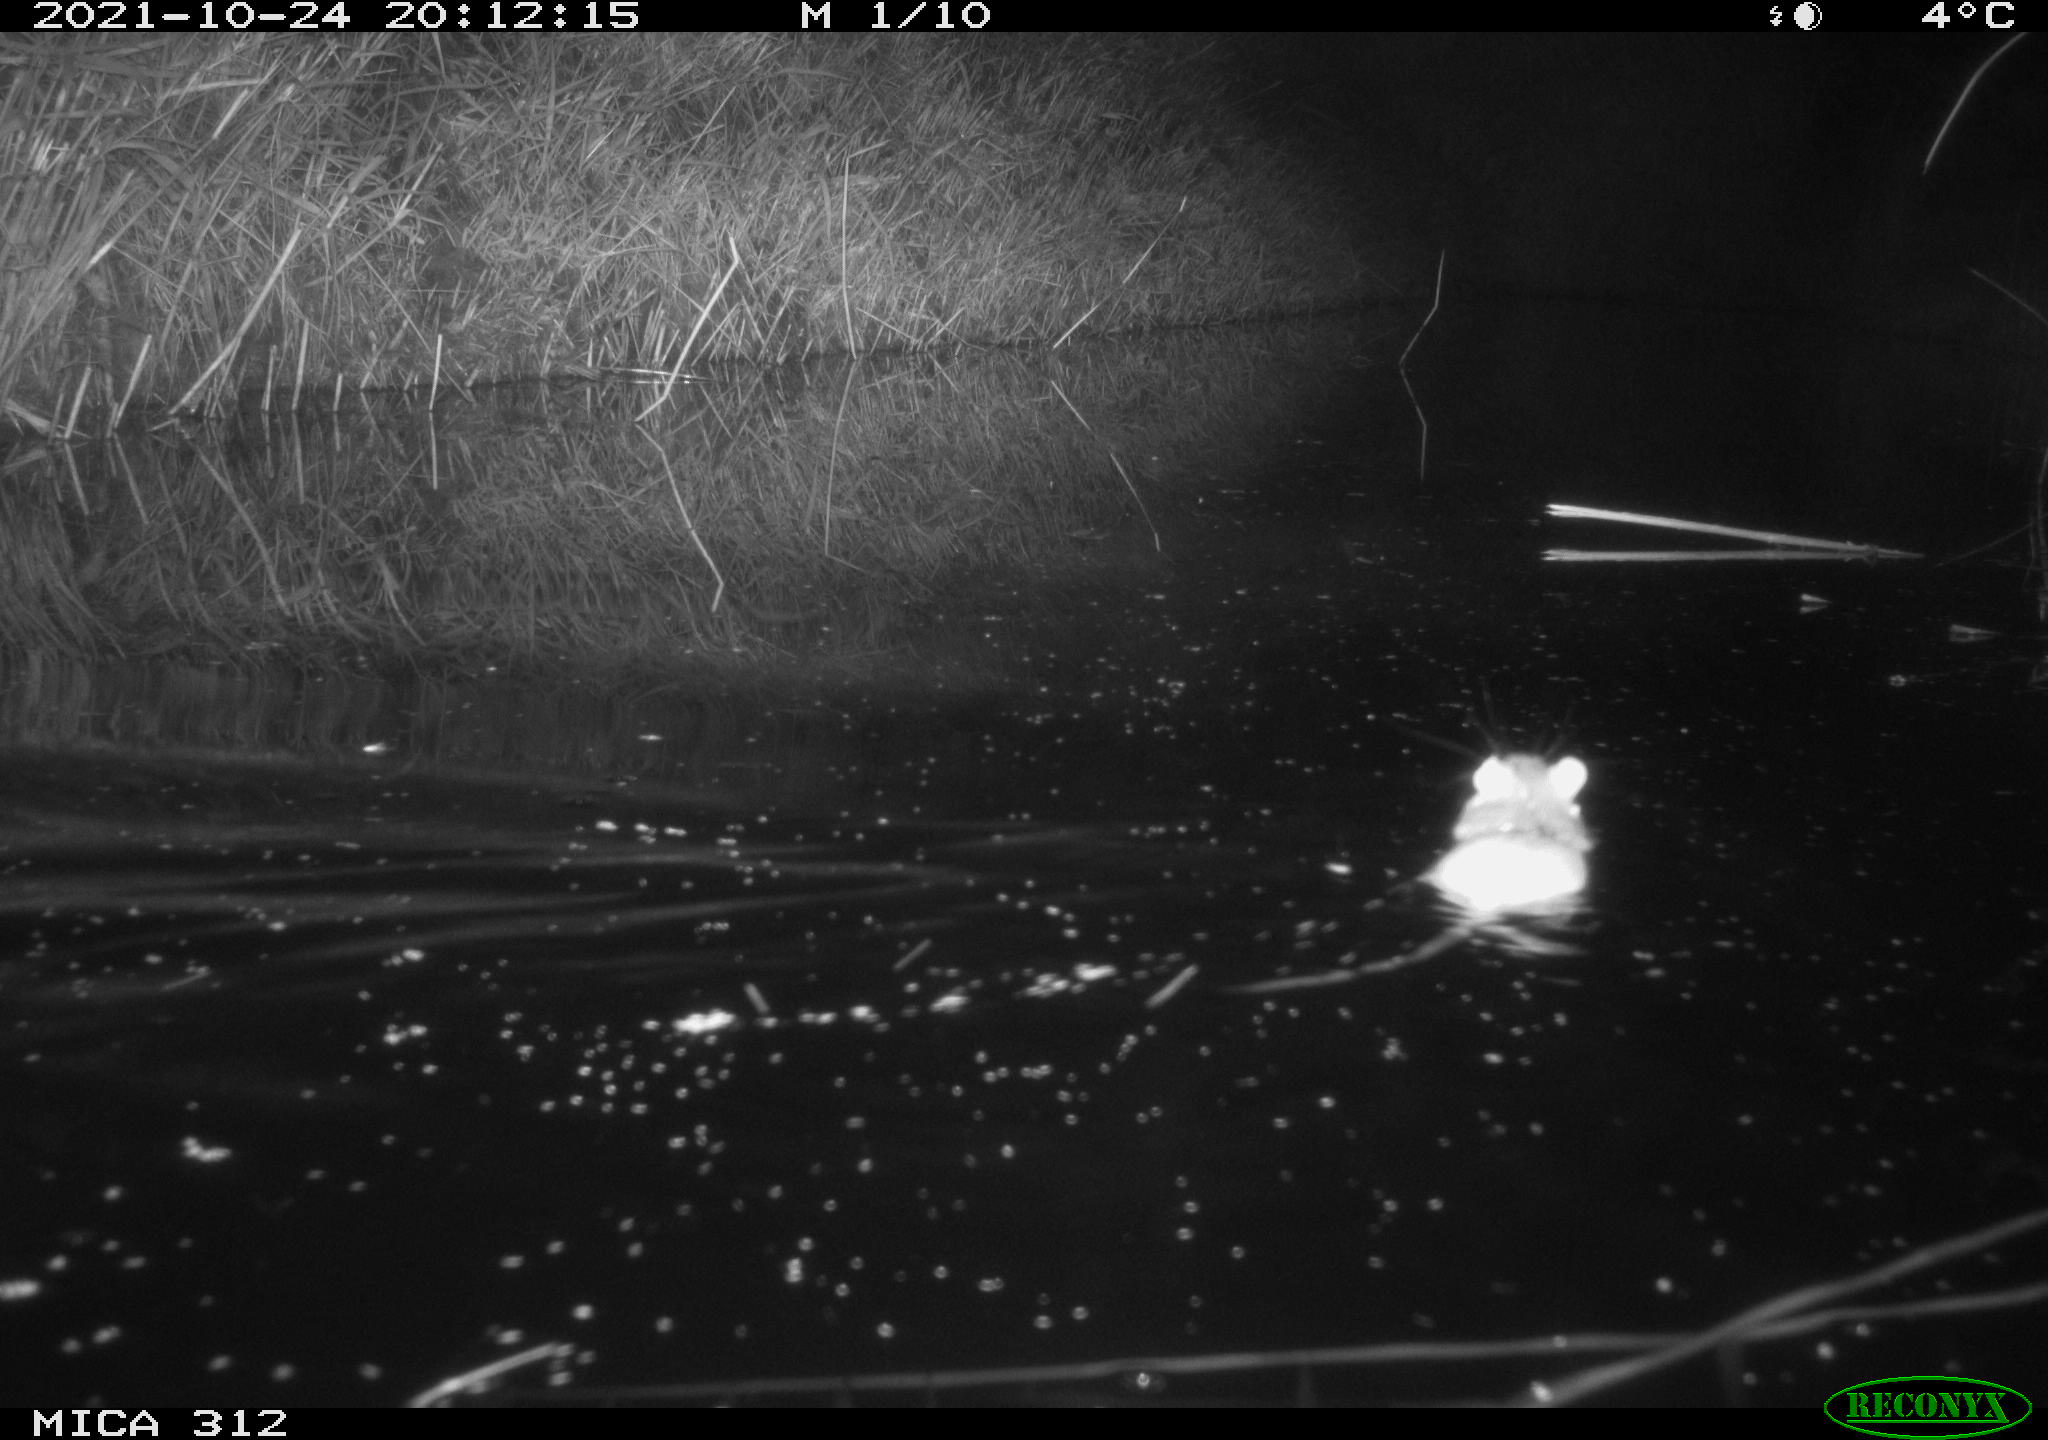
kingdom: Animalia
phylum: Chordata
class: Mammalia
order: Rodentia
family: Muridae
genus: Rattus
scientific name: Rattus norvegicus
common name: Brown rat
